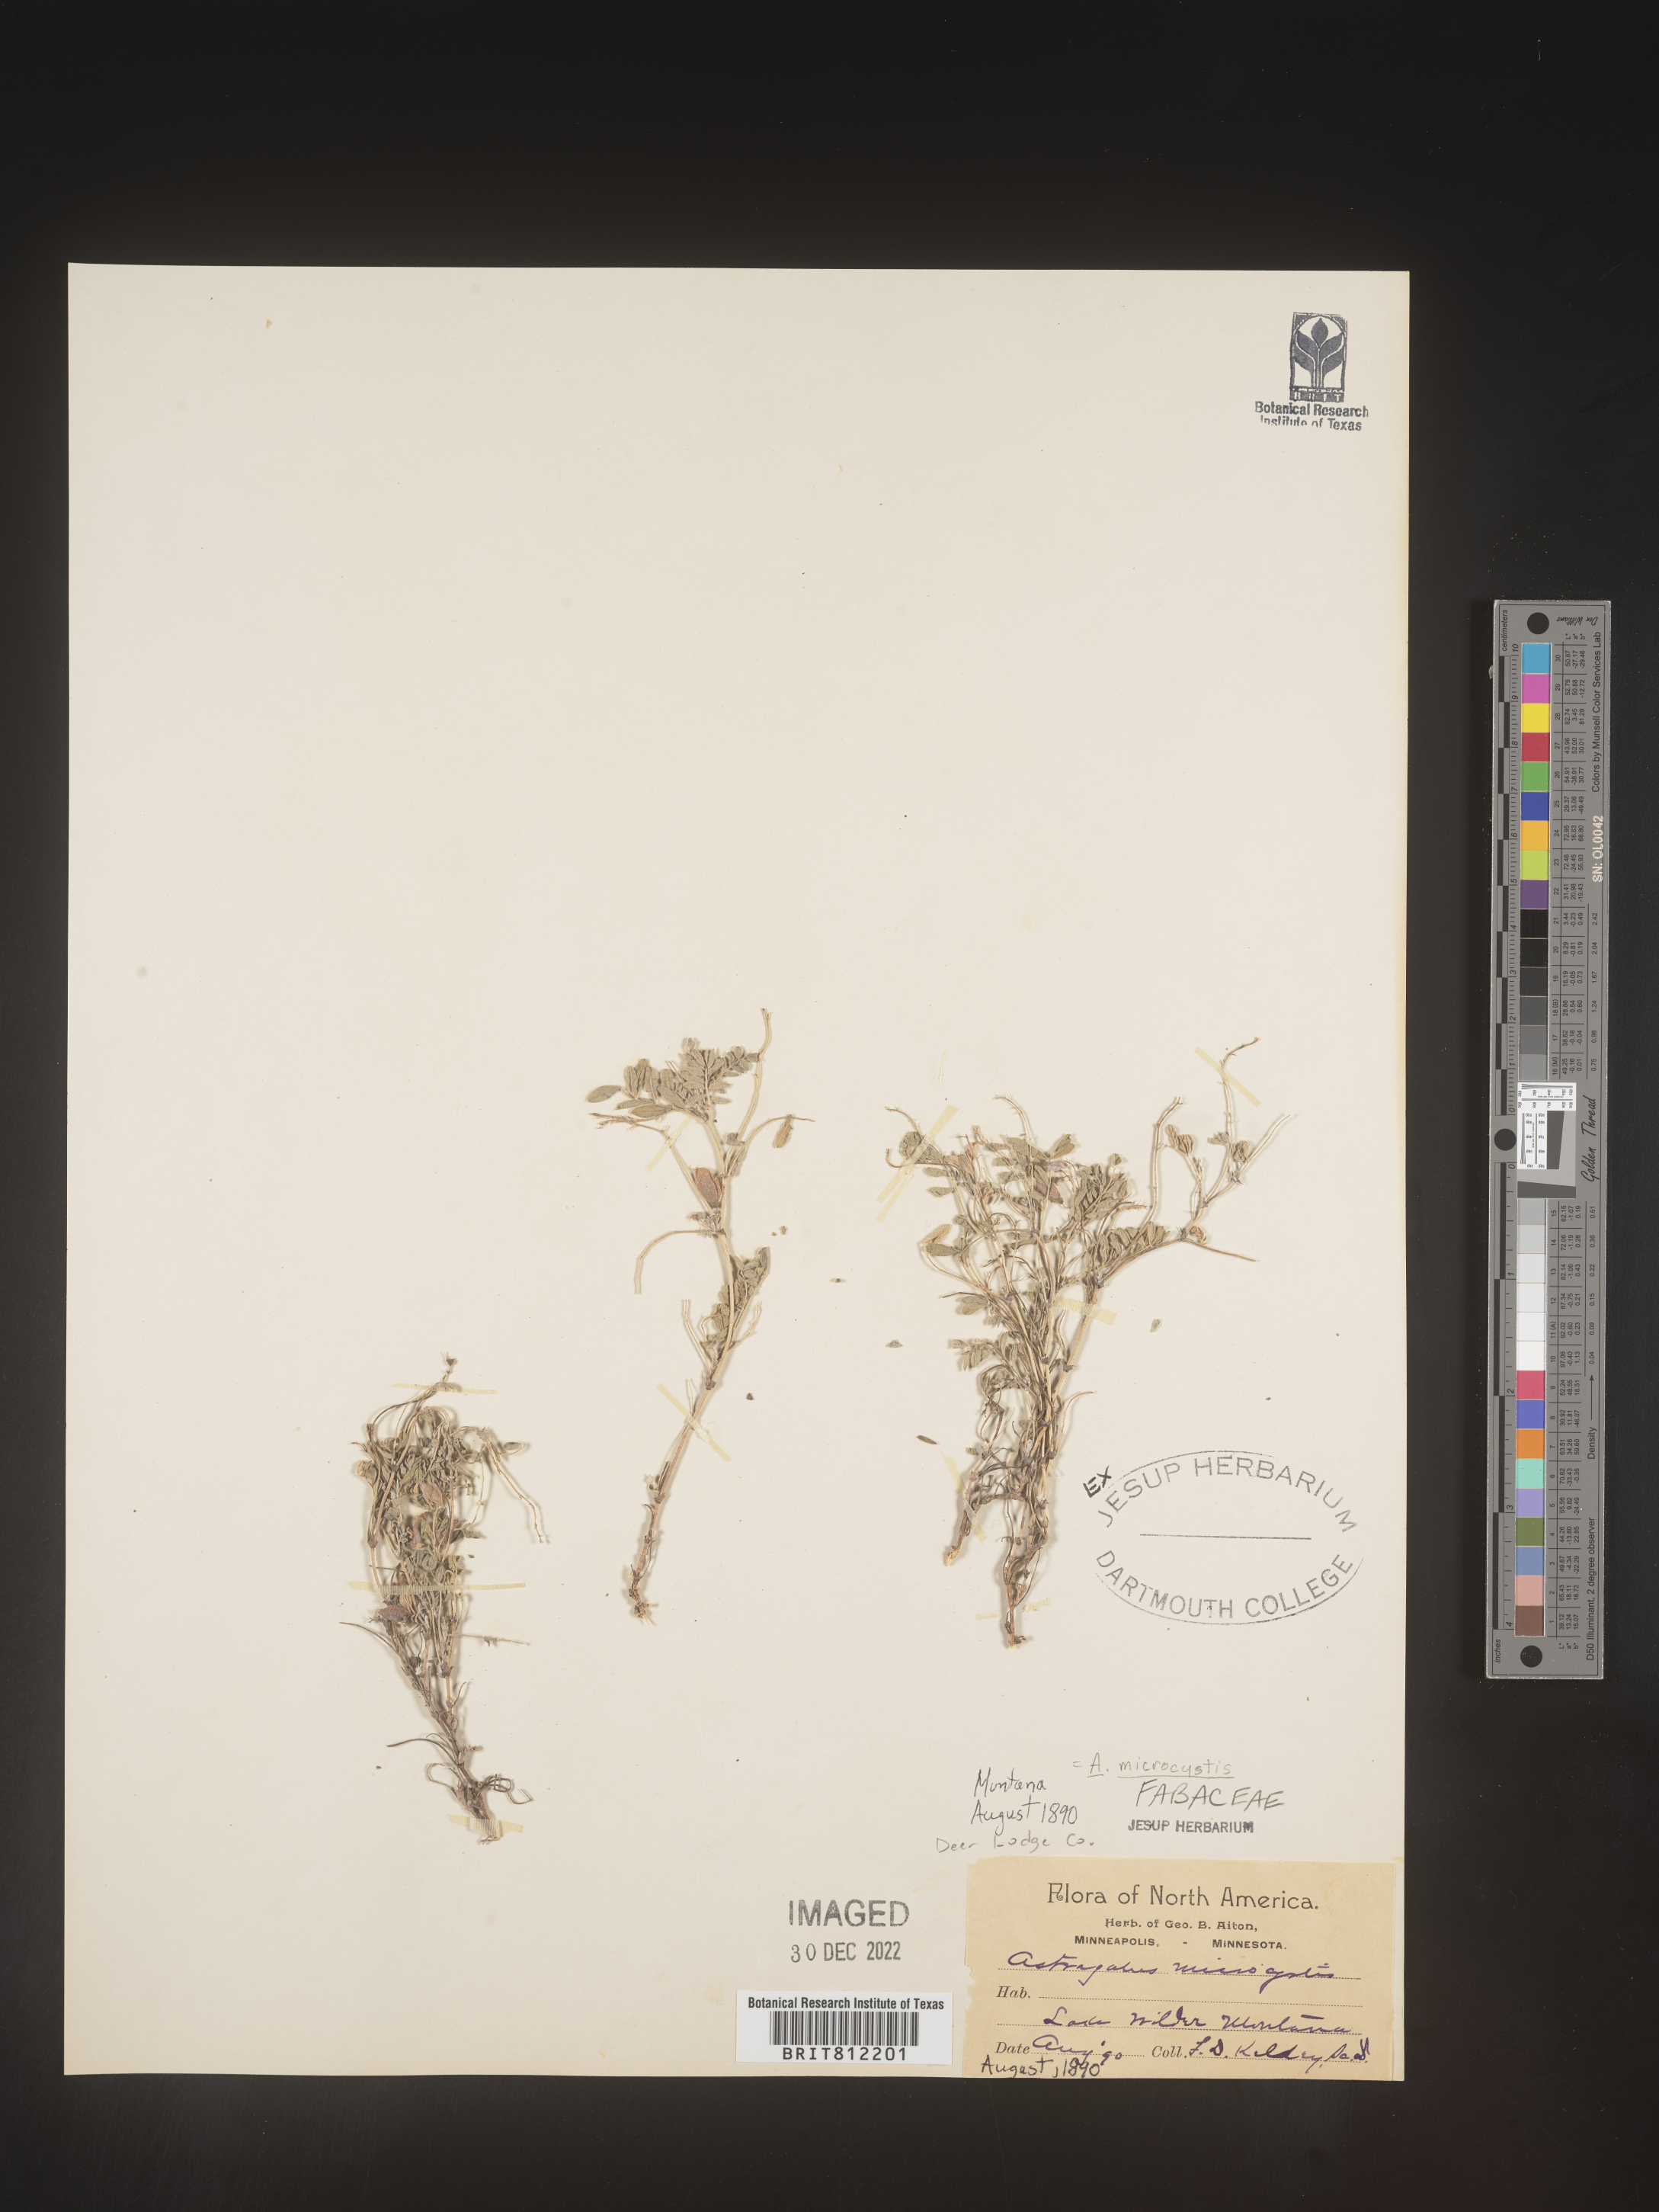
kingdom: Plantae
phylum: Tracheophyta
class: Magnoliopsida
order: Fabales
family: Fabaceae
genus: Astragalus
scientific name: Astragalus
